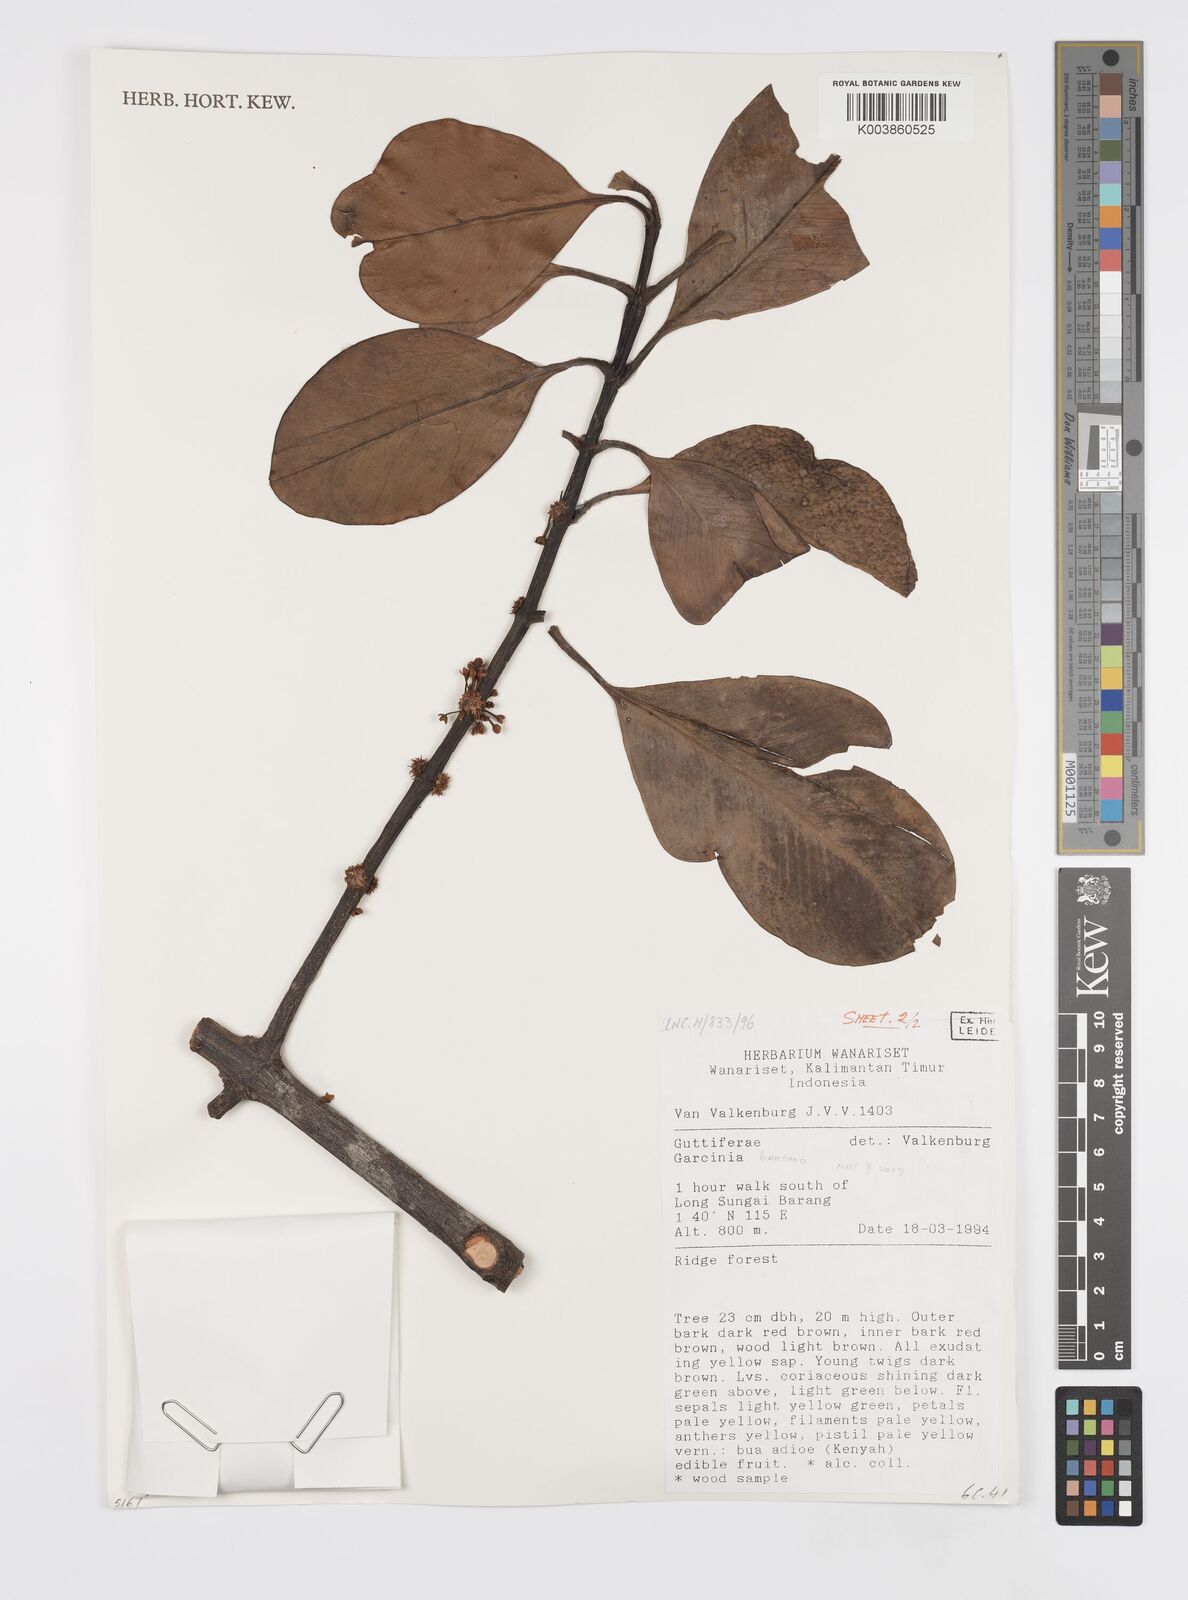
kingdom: Plantae
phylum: Tracheophyta
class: Magnoliopsida
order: Malpighiales
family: Clusiaceae
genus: Garcinia
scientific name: Garcinia bancana
